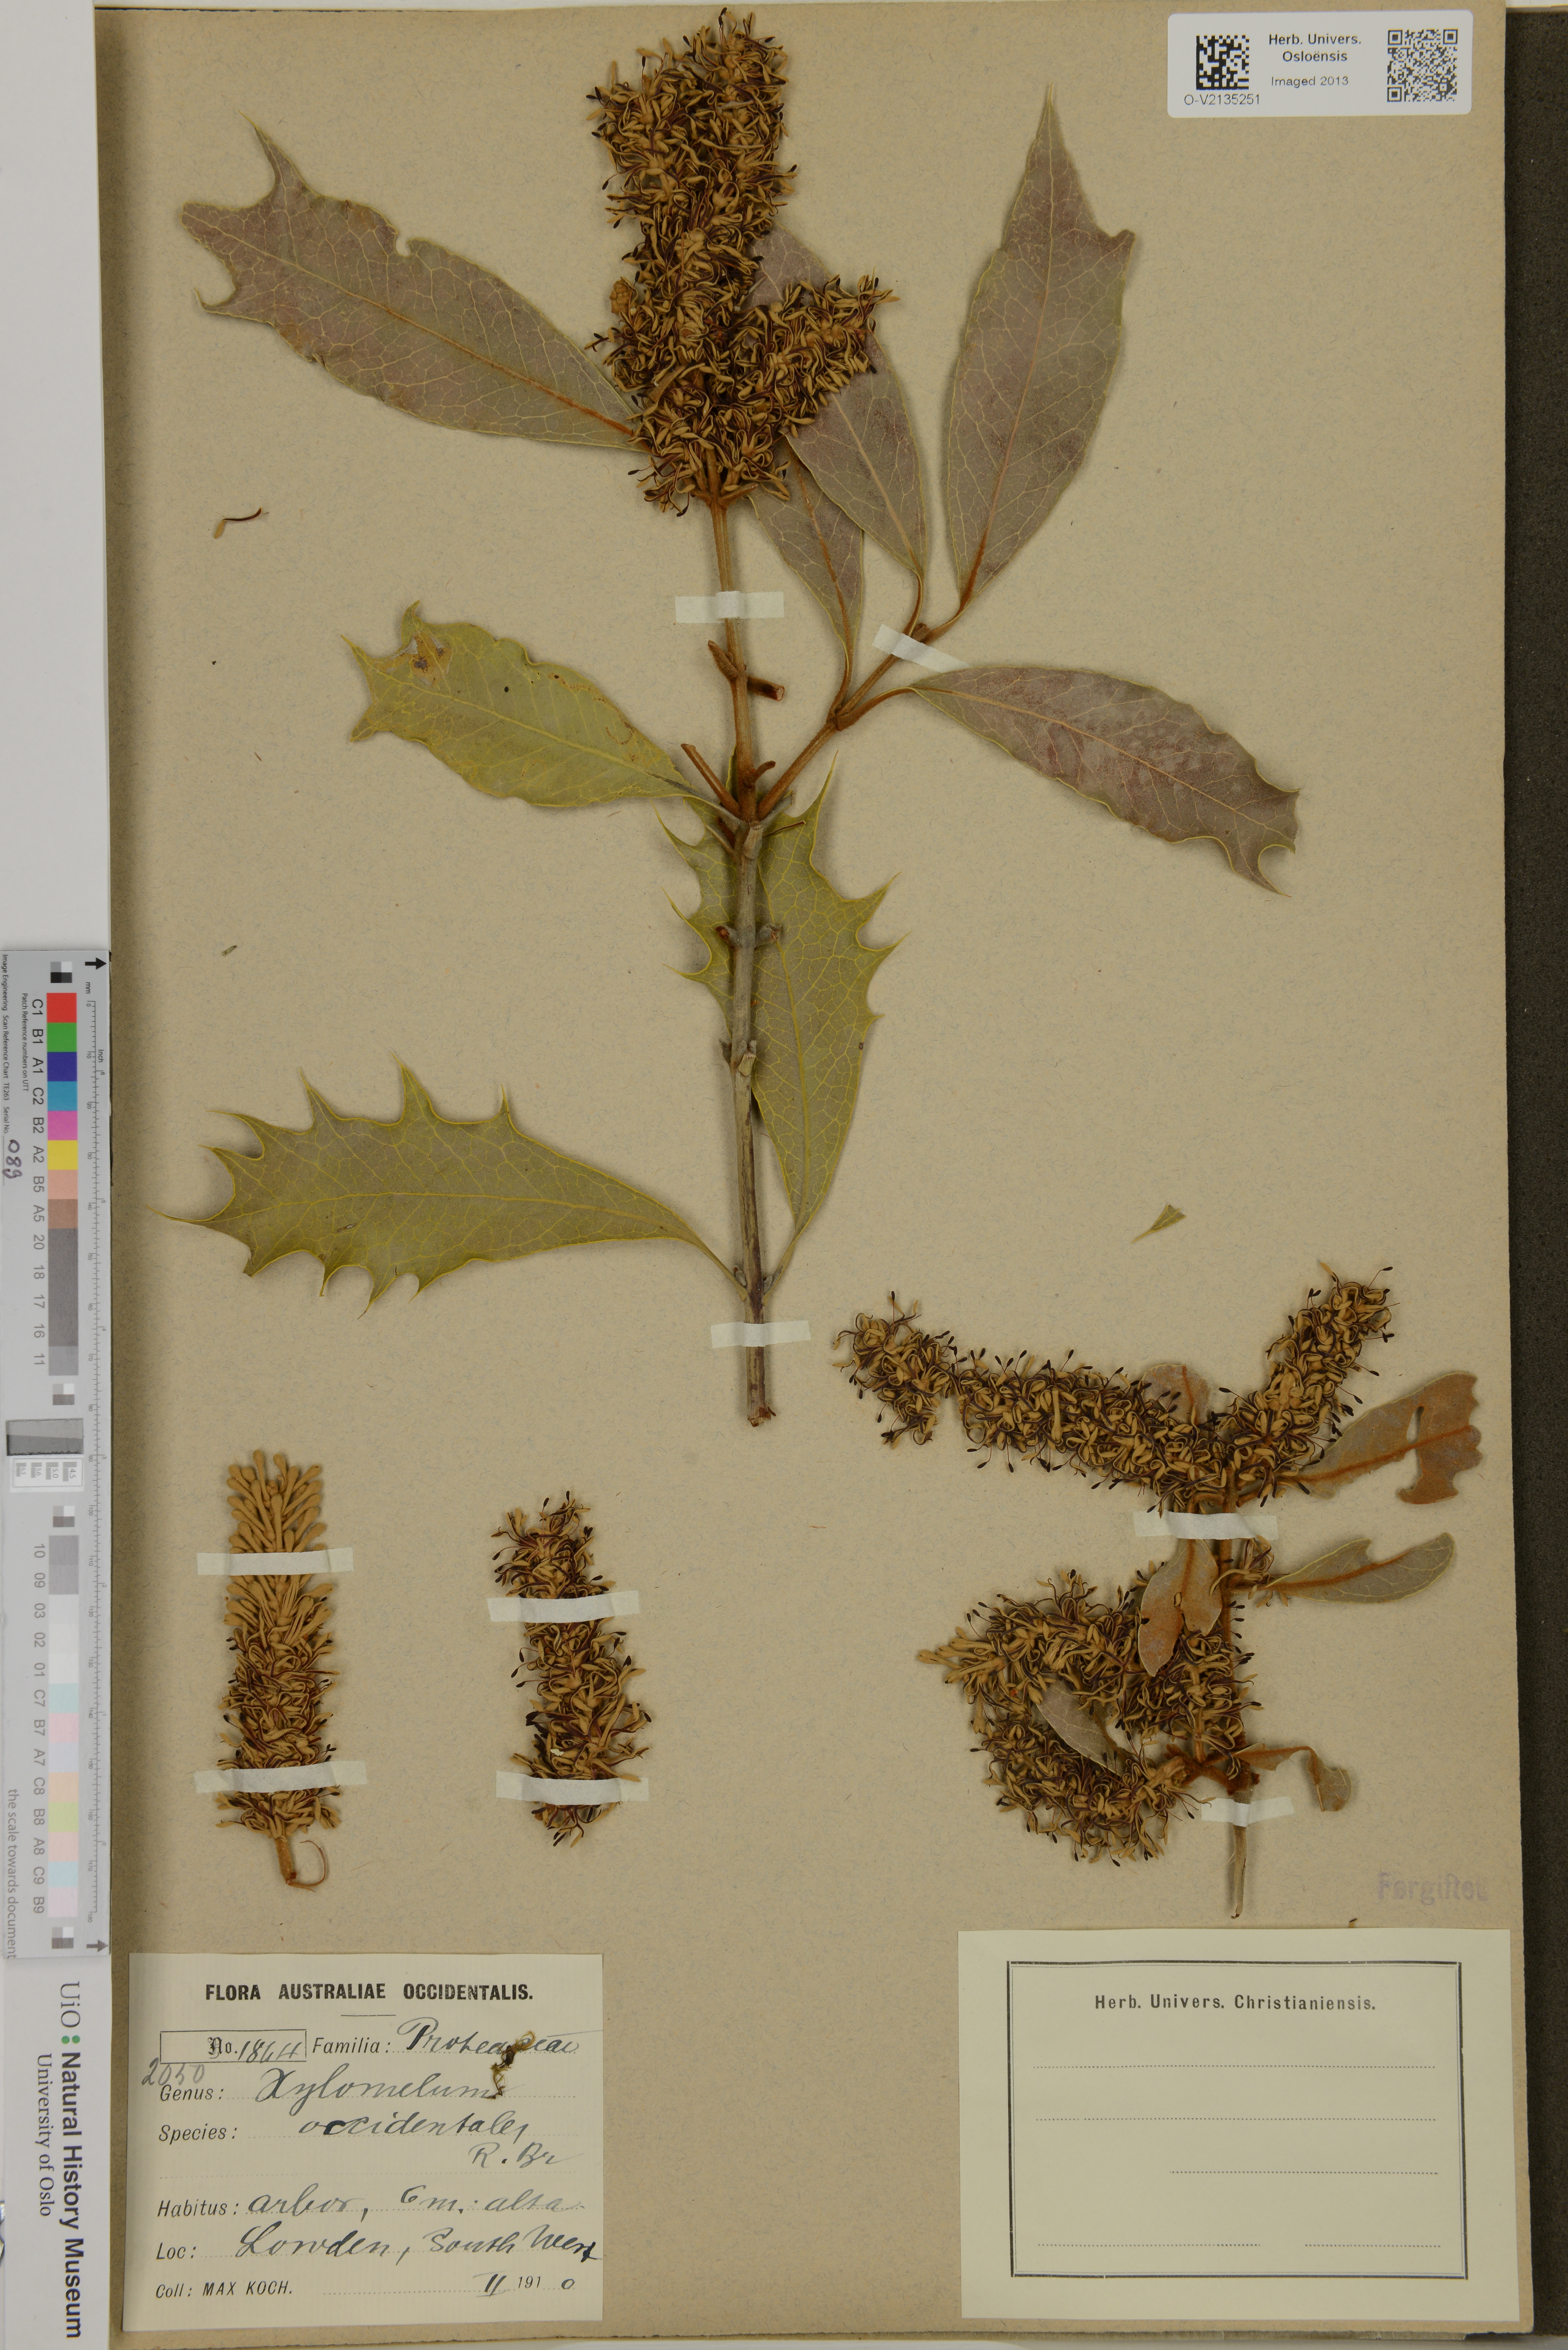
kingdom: Plantae
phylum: Tracheophyta
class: Magnoliopsida
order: Proteales
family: Proteaceae
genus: Xylomelum
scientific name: Xylomelum occidentale
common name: Western woody-pear
